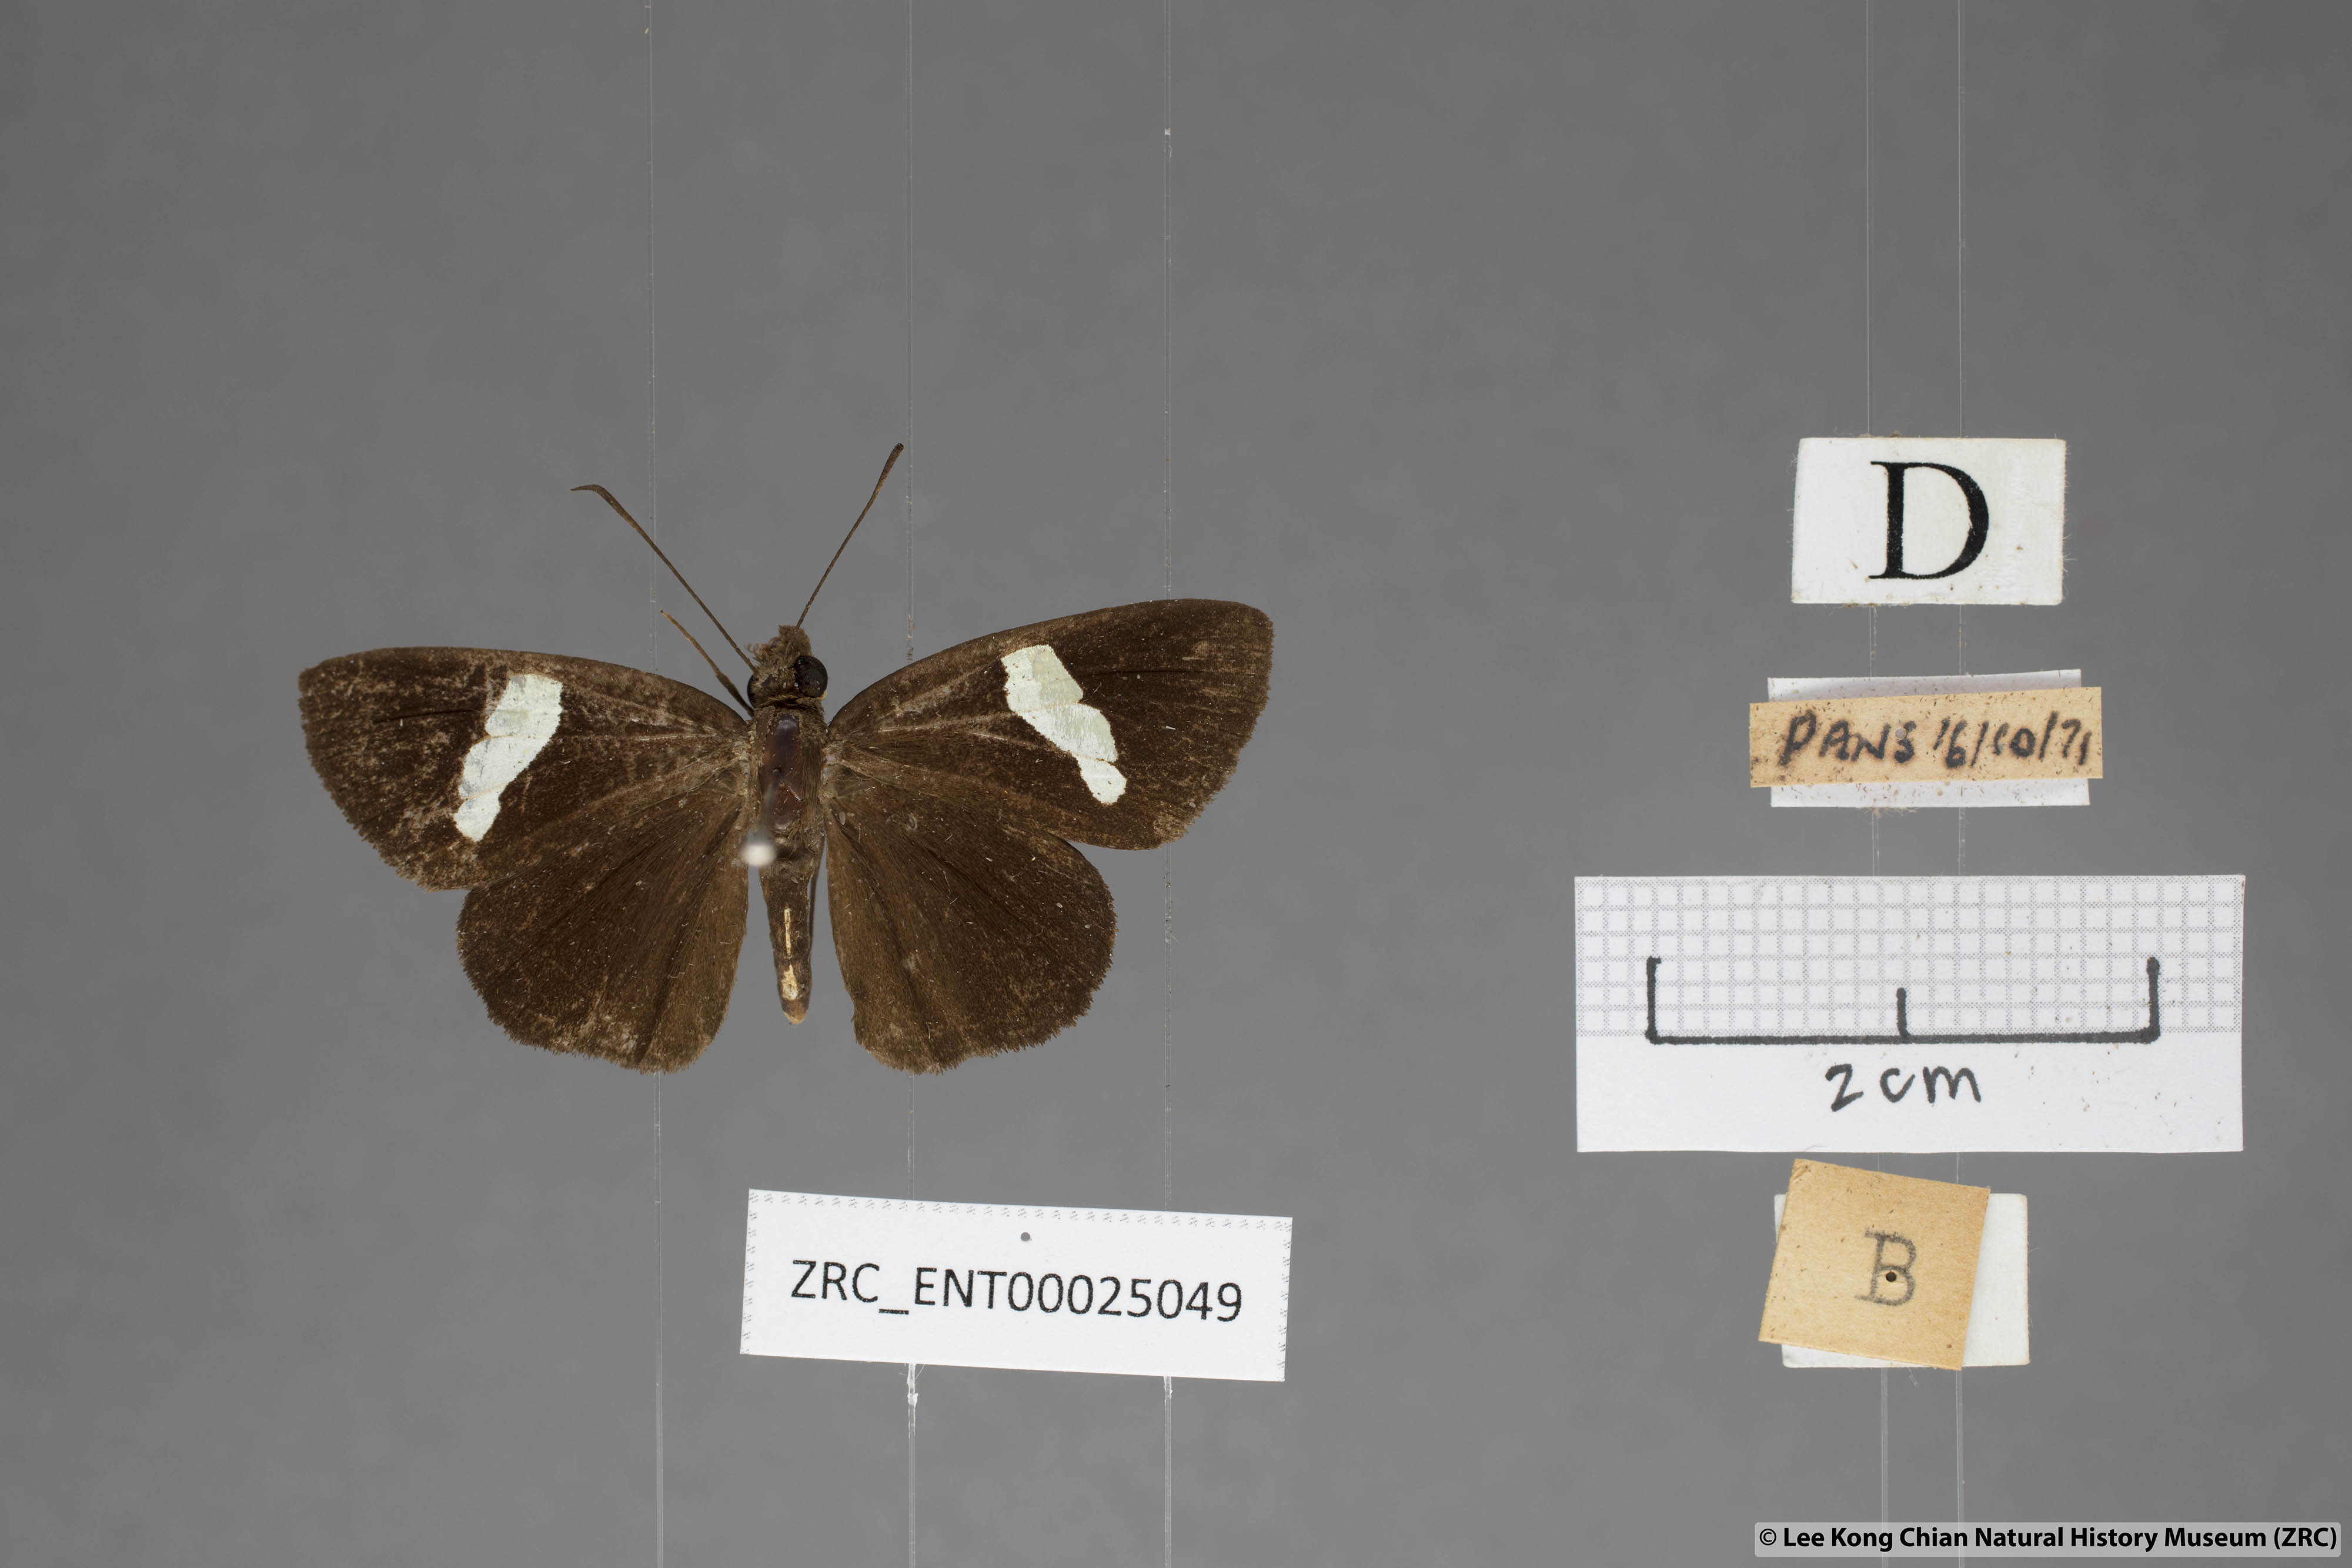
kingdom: Animalia
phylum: Arthropoda
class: Insecta
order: Lepidoptera
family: Hesperiidae
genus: Notocrypta
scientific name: Notocrypta pria
